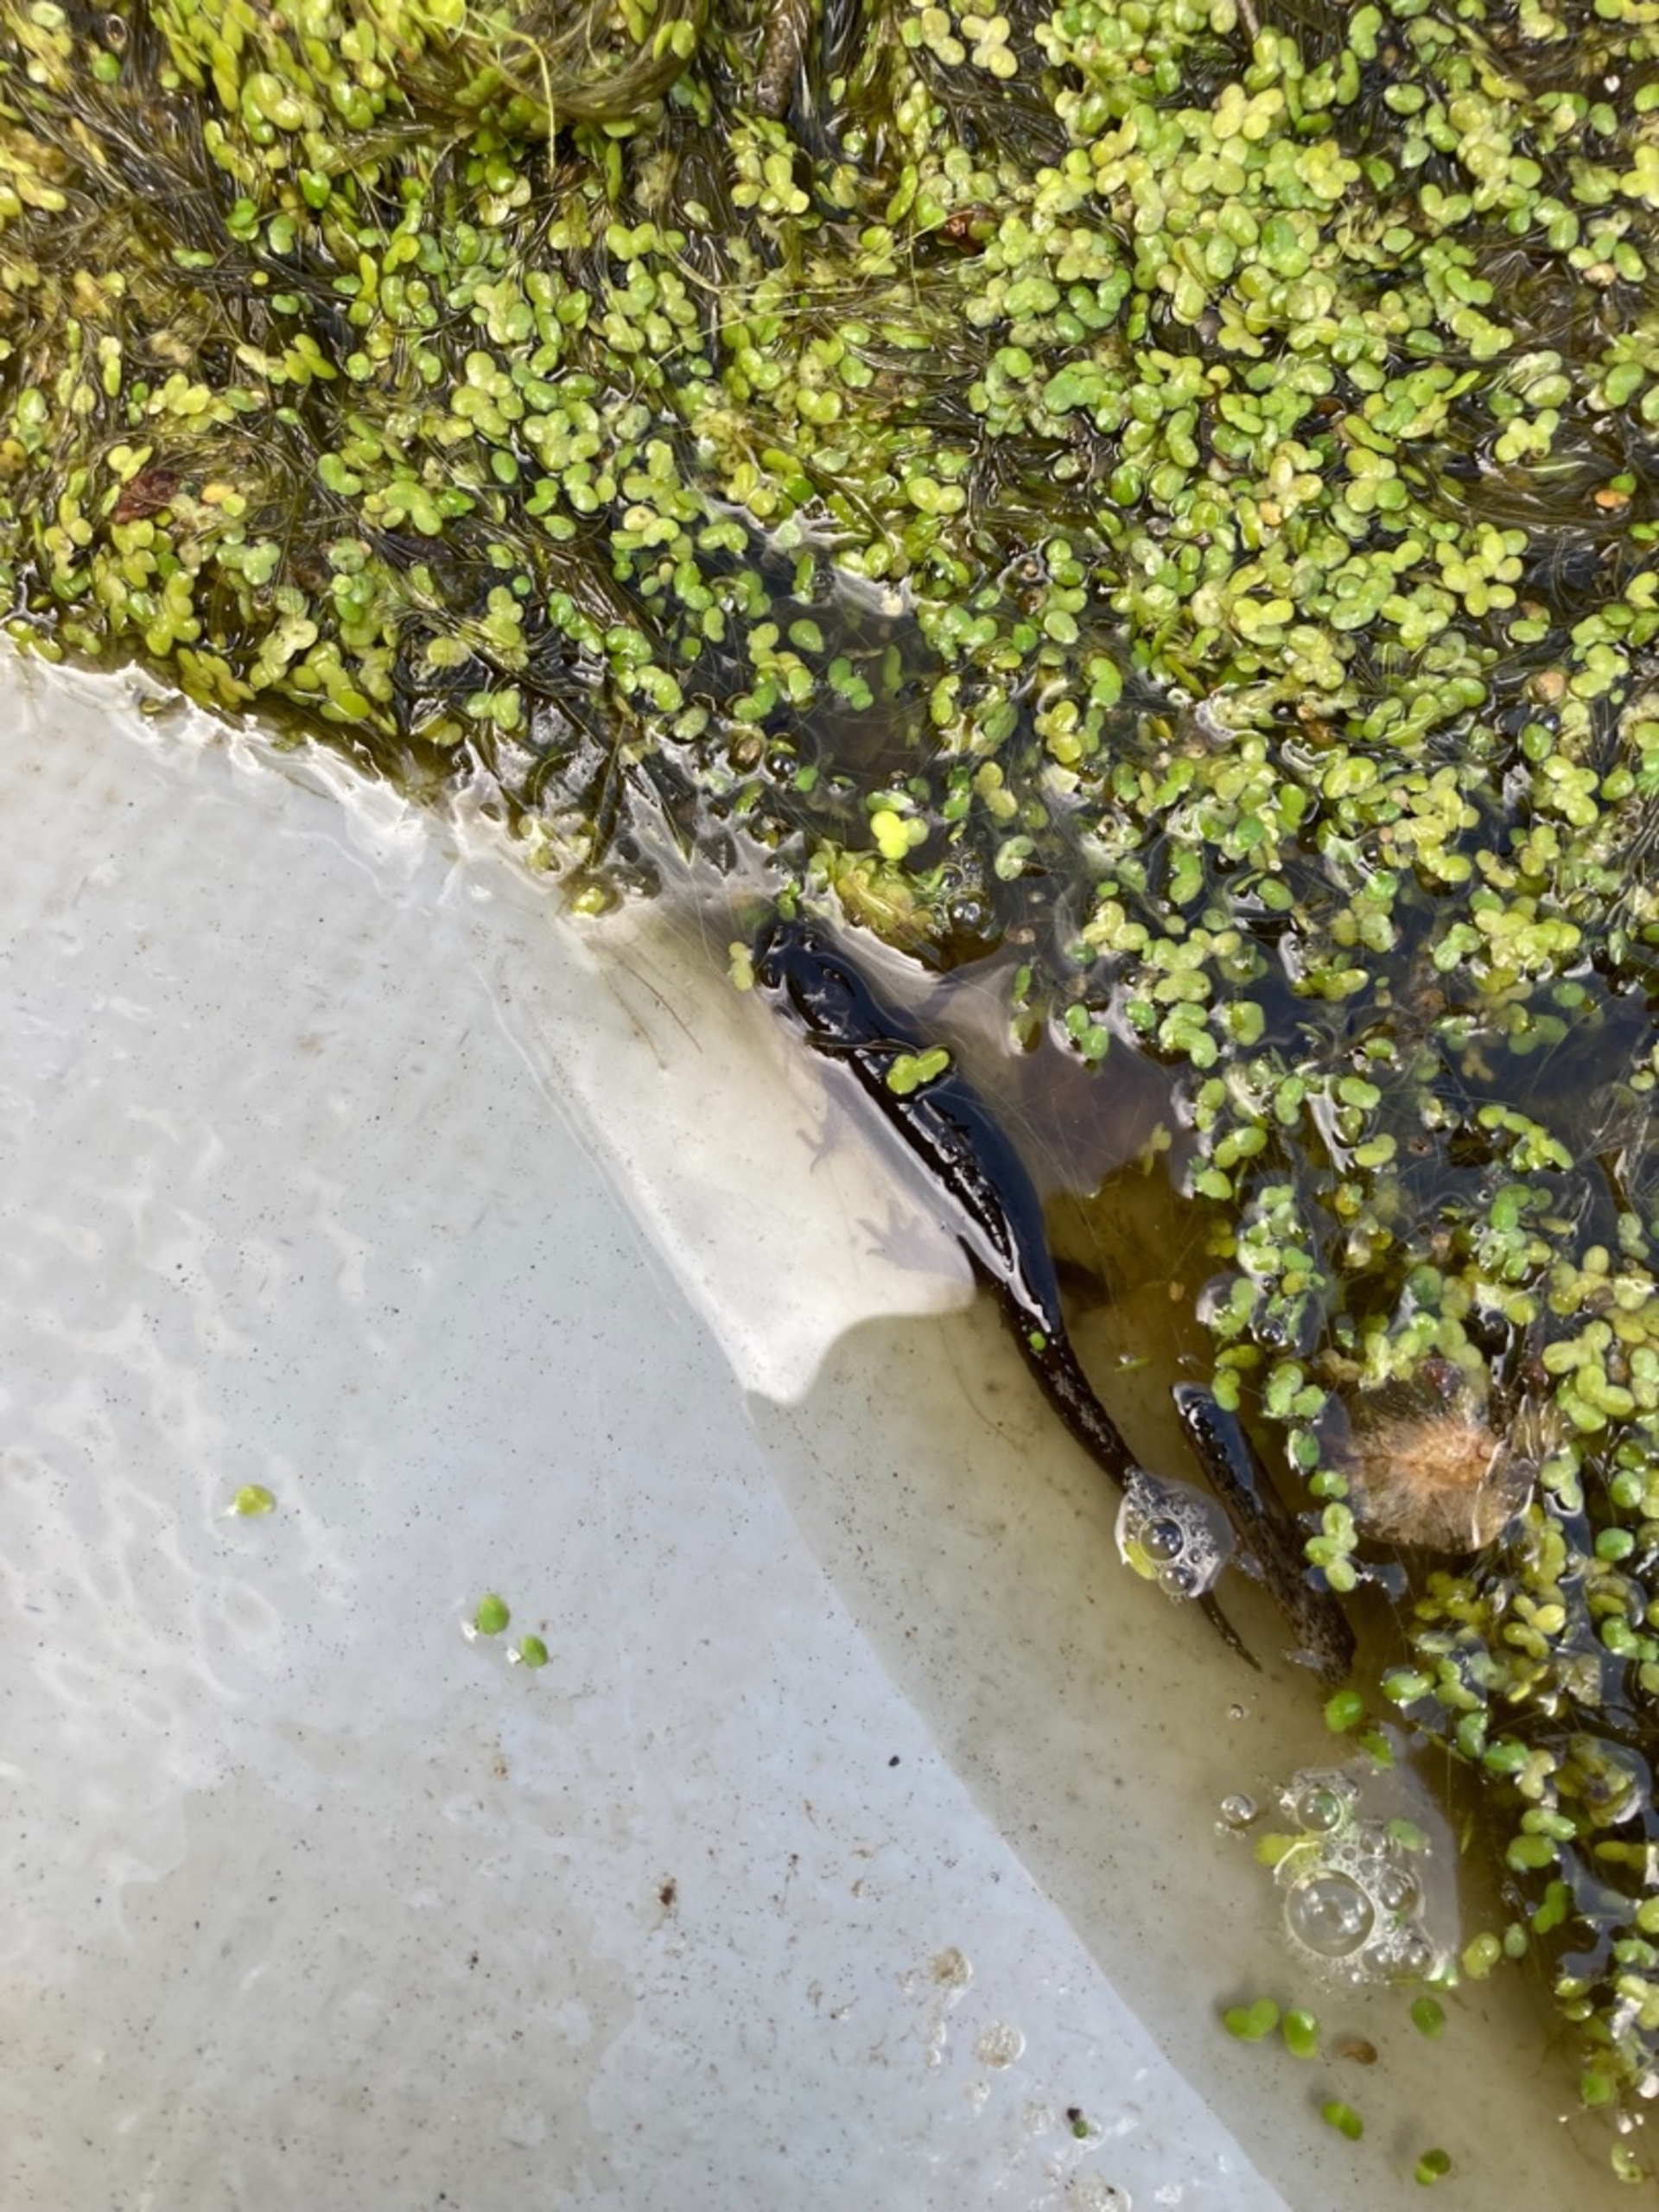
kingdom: Animalia
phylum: Chordata
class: Amphibia
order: Caudata
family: Salamandridae
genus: Lissotriton
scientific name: Lissotriton vulgaris
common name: Lille vandsalamander
